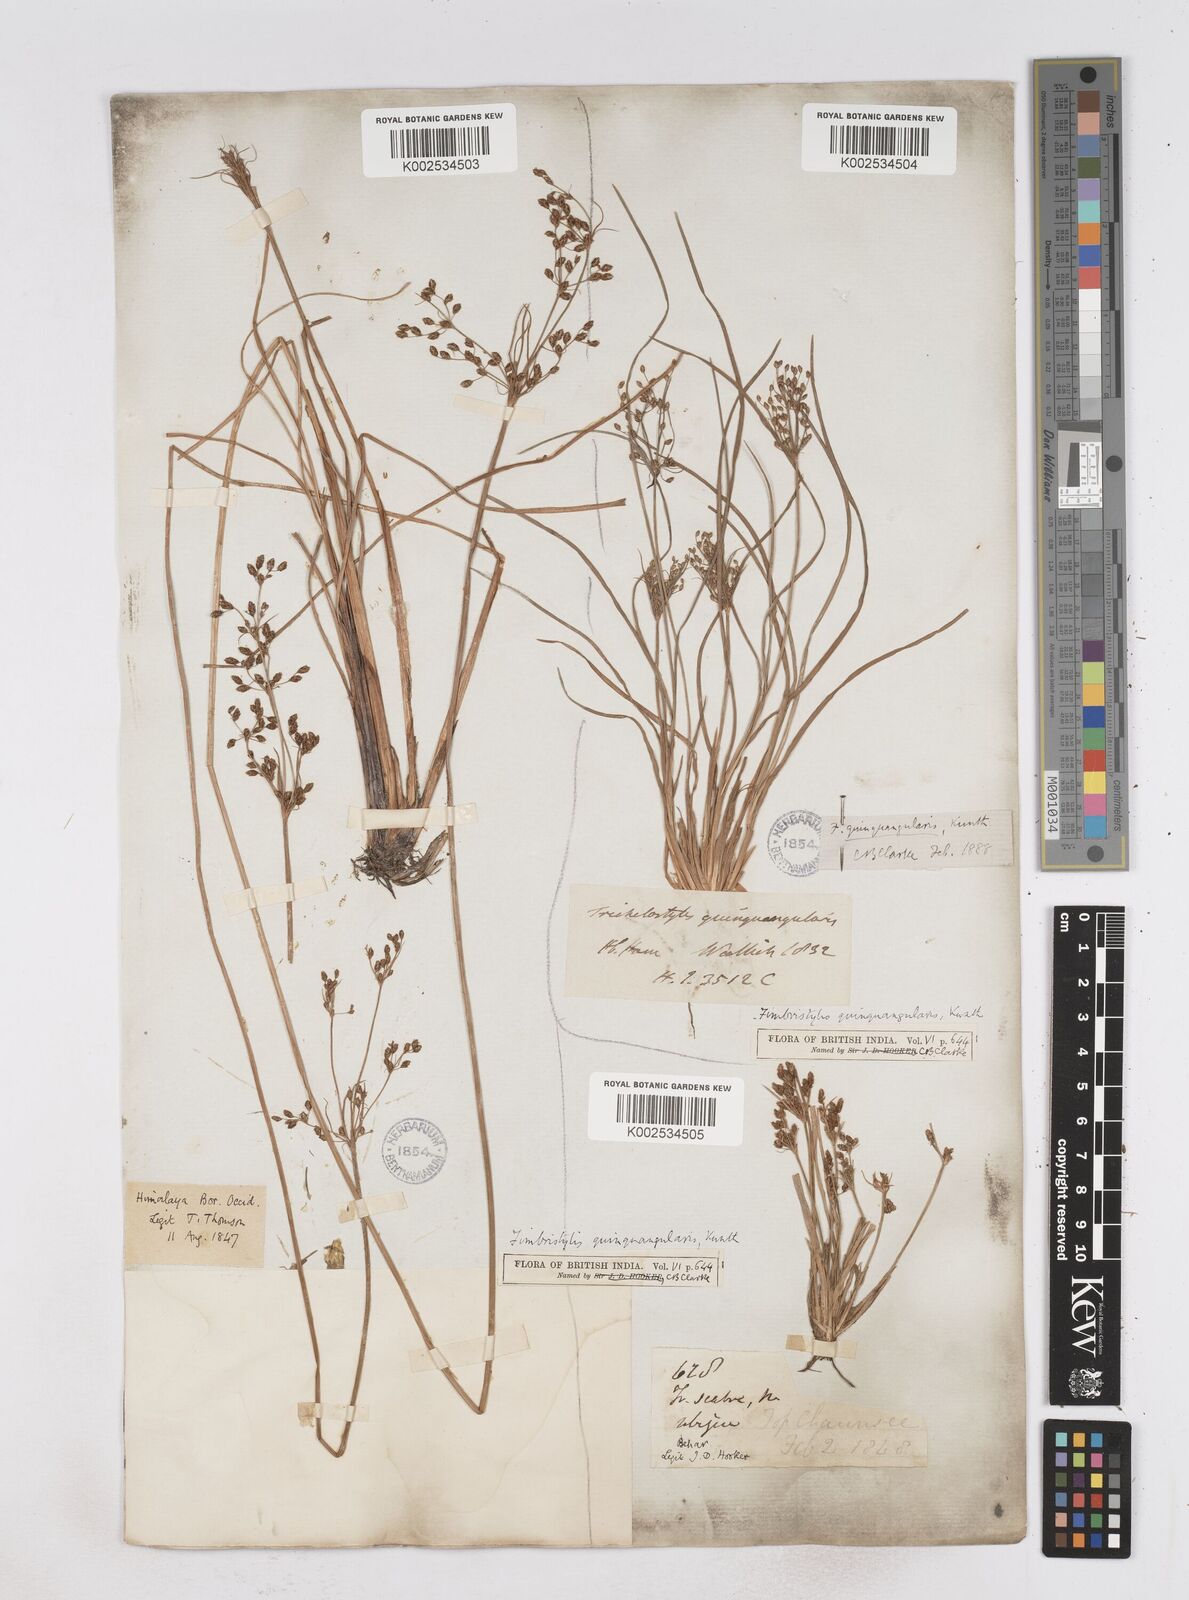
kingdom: Plantae
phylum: Tracheophyta
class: Liliopsida
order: Poales
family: Cyperaceae
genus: Fimbristylis
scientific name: Fimbristylis quinquangularis
